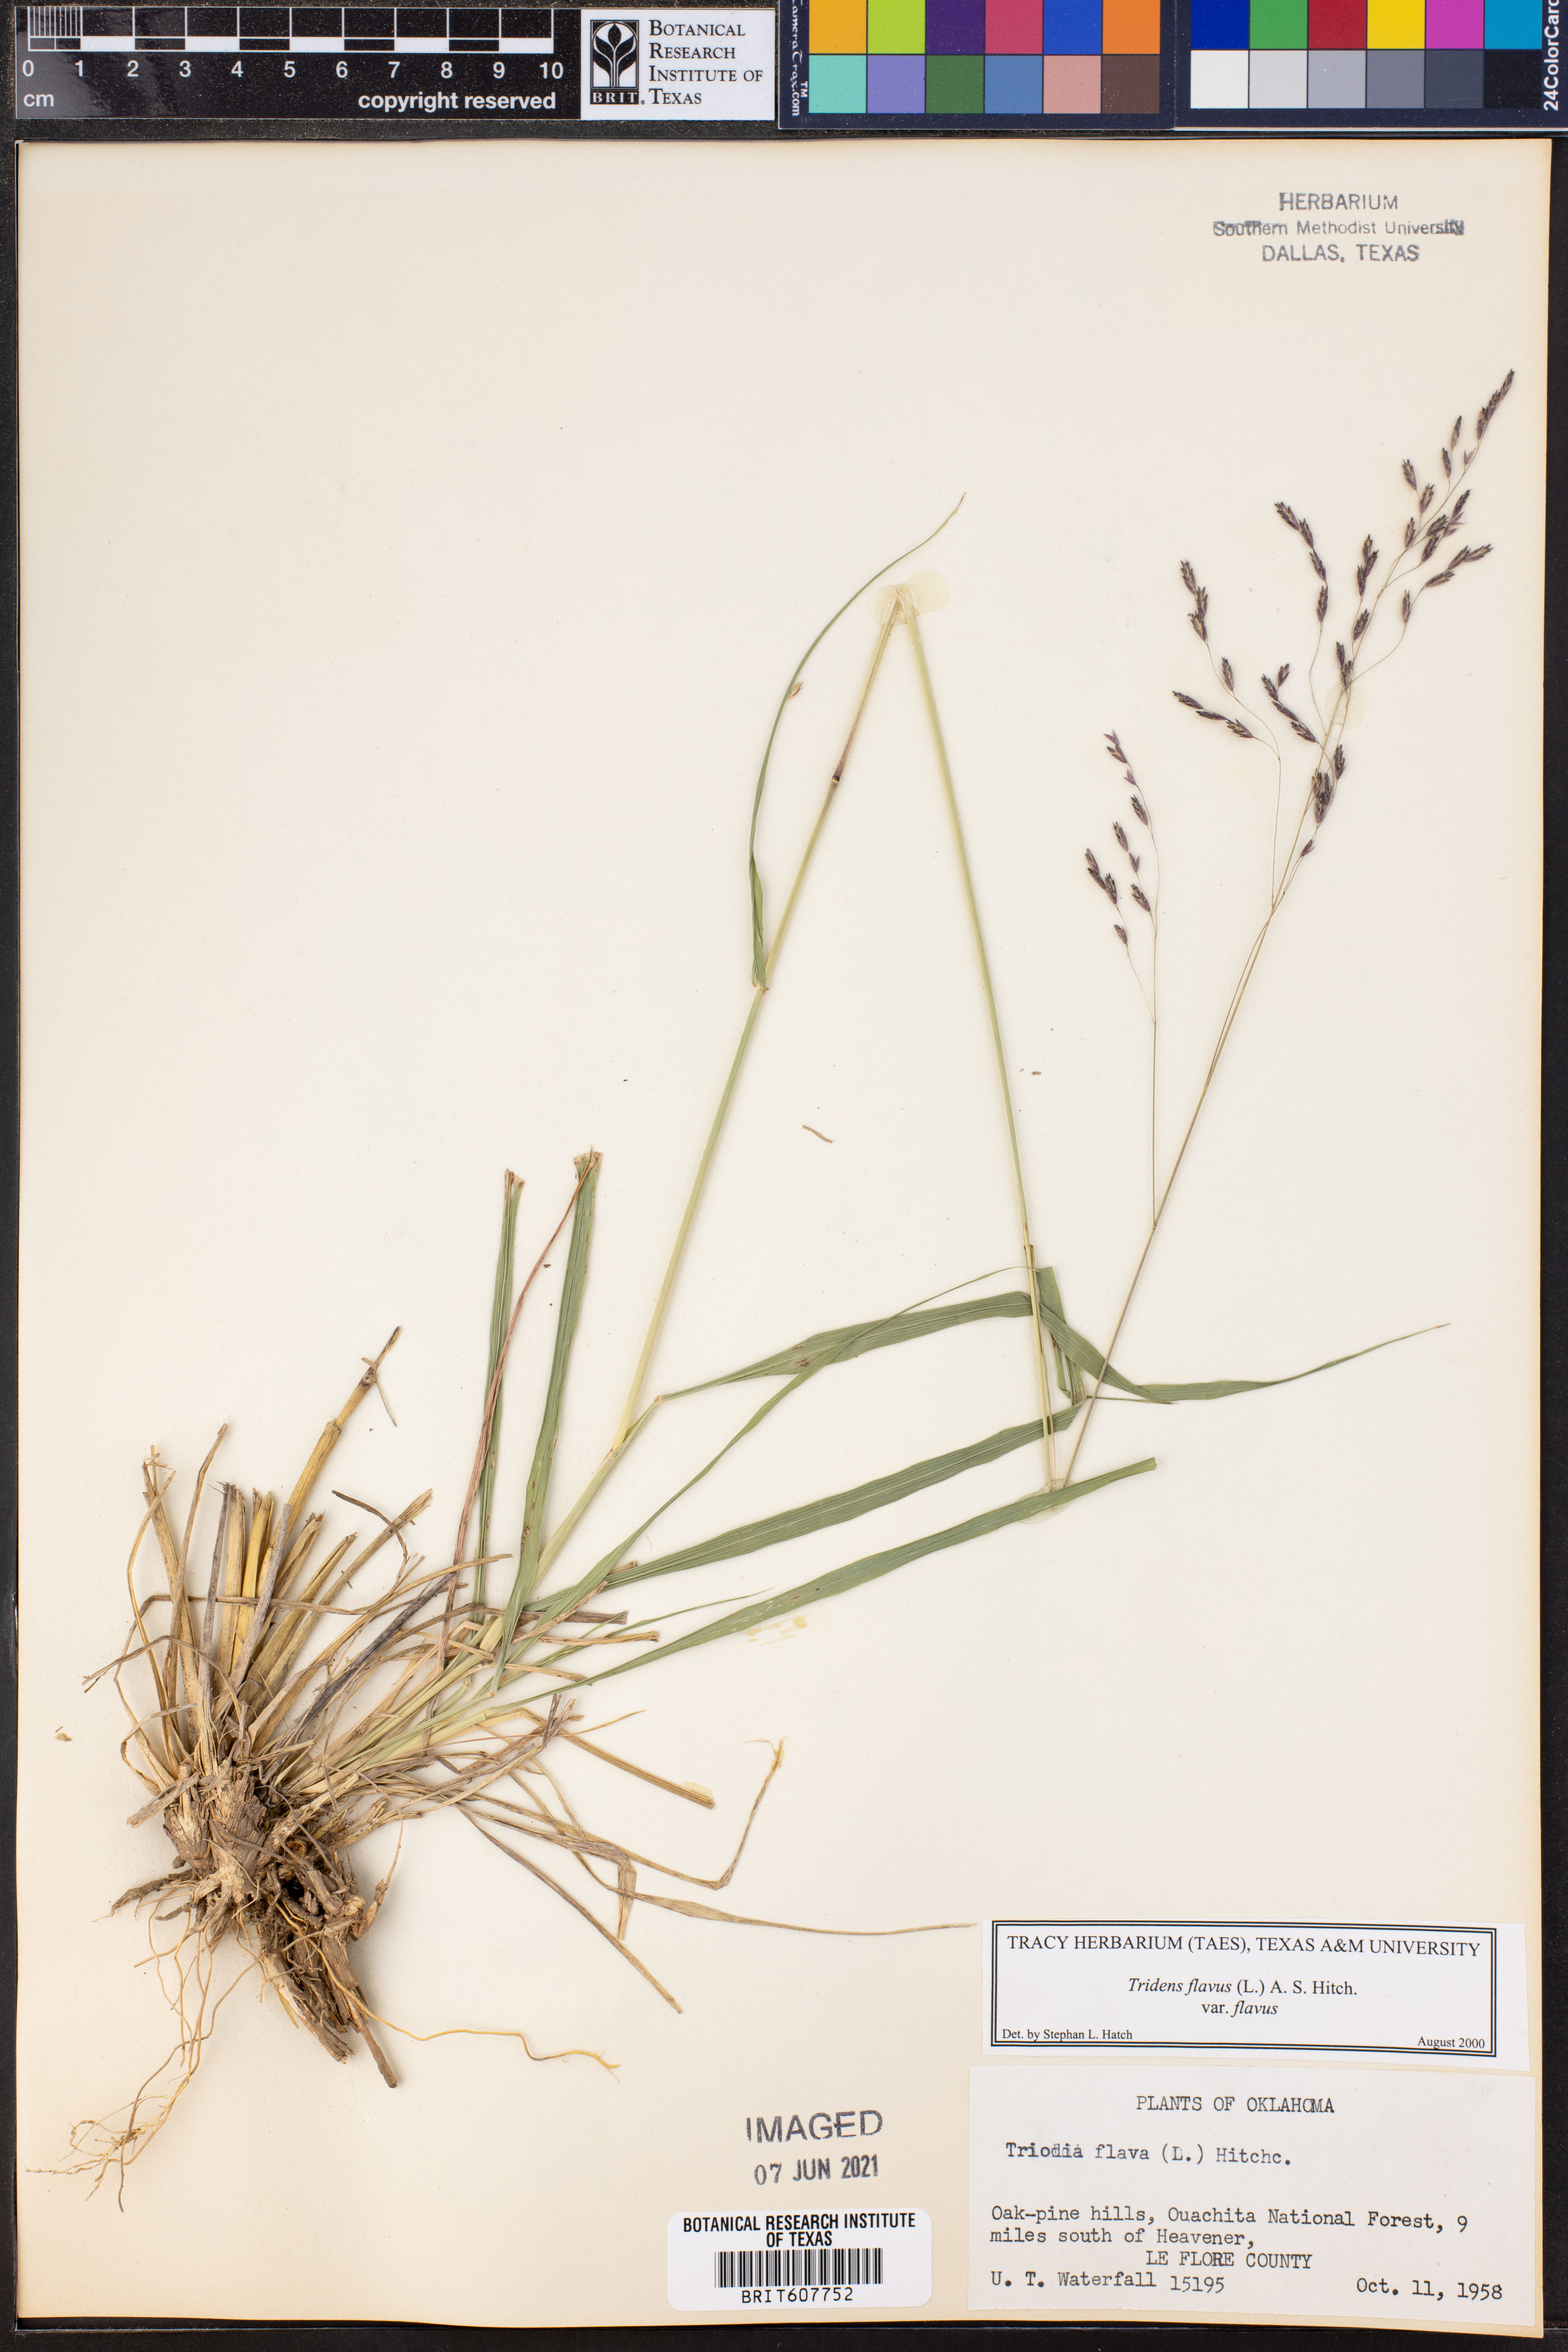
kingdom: Plantae
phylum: Tracheophyta
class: Liliopsida
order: Poales
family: Poaceae
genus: Tridens
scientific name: Tridens flavus
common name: Purpletop
